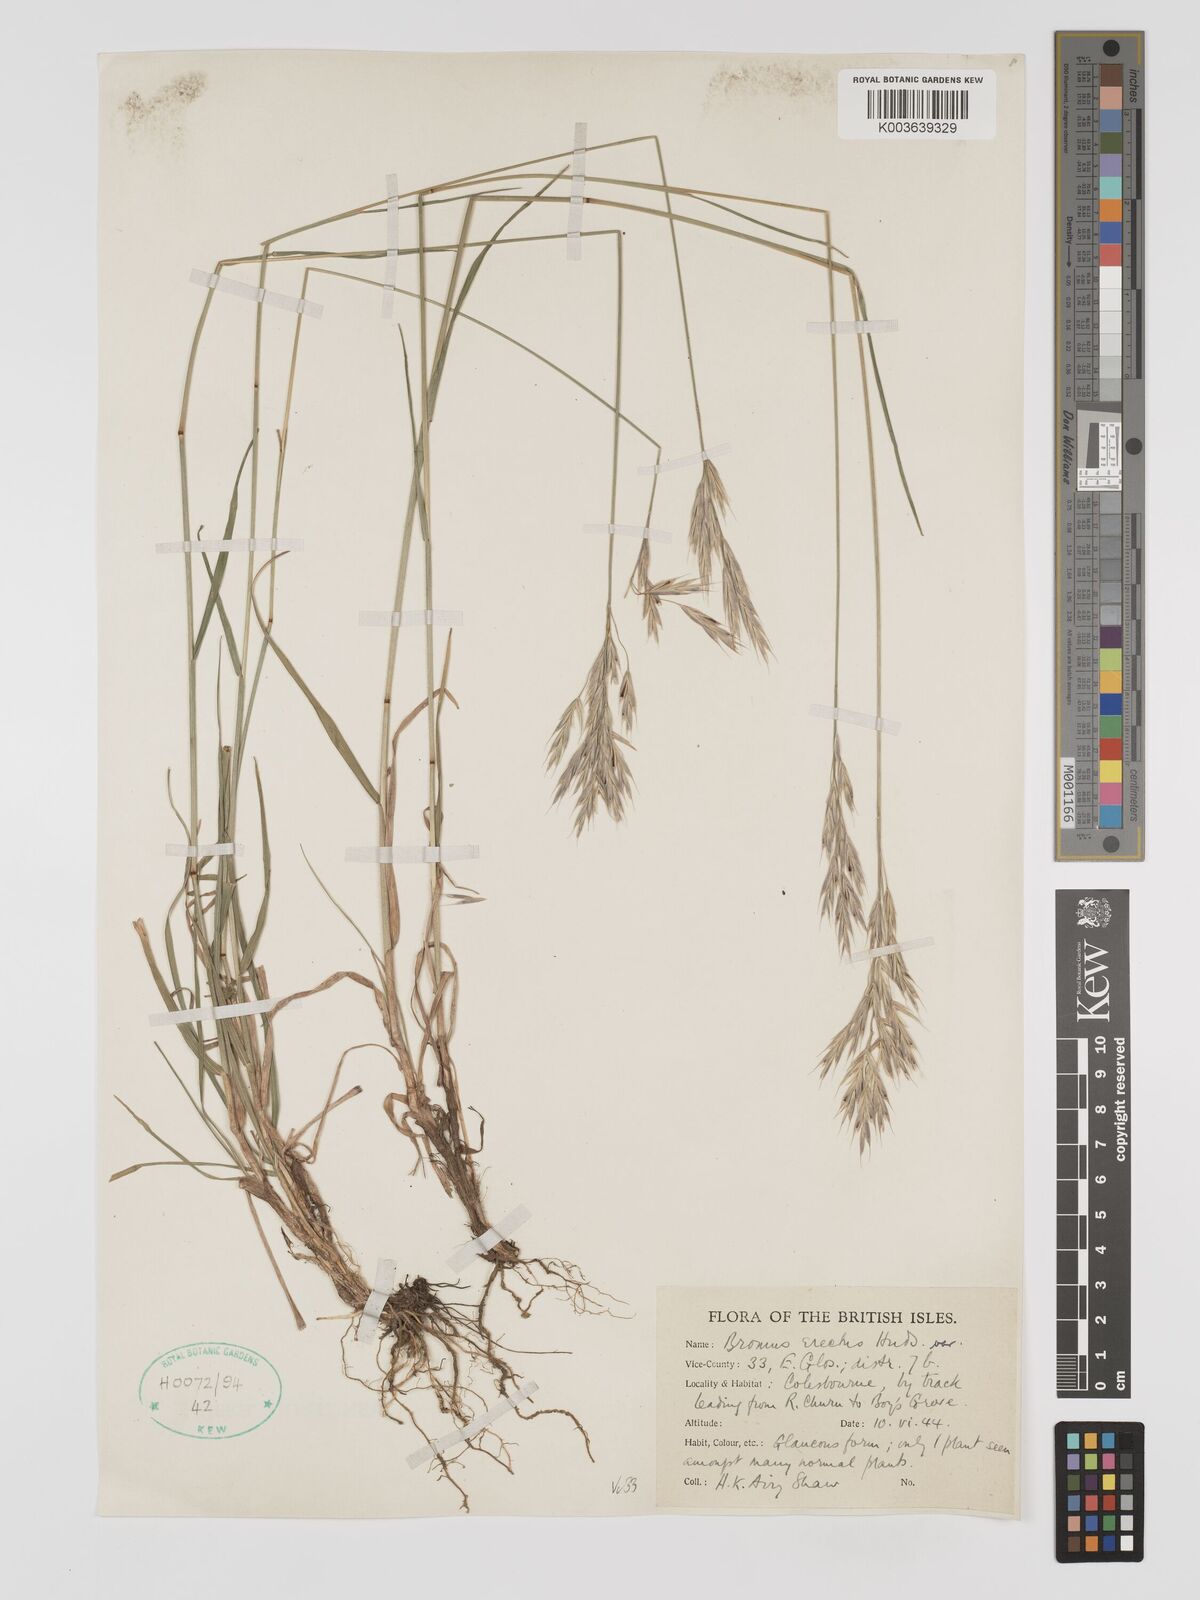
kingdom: Plantae
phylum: Tracheophyta
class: Liliopsida
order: Poales
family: Poaceae
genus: Bromus
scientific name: Bromus erectus
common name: Erect brome
